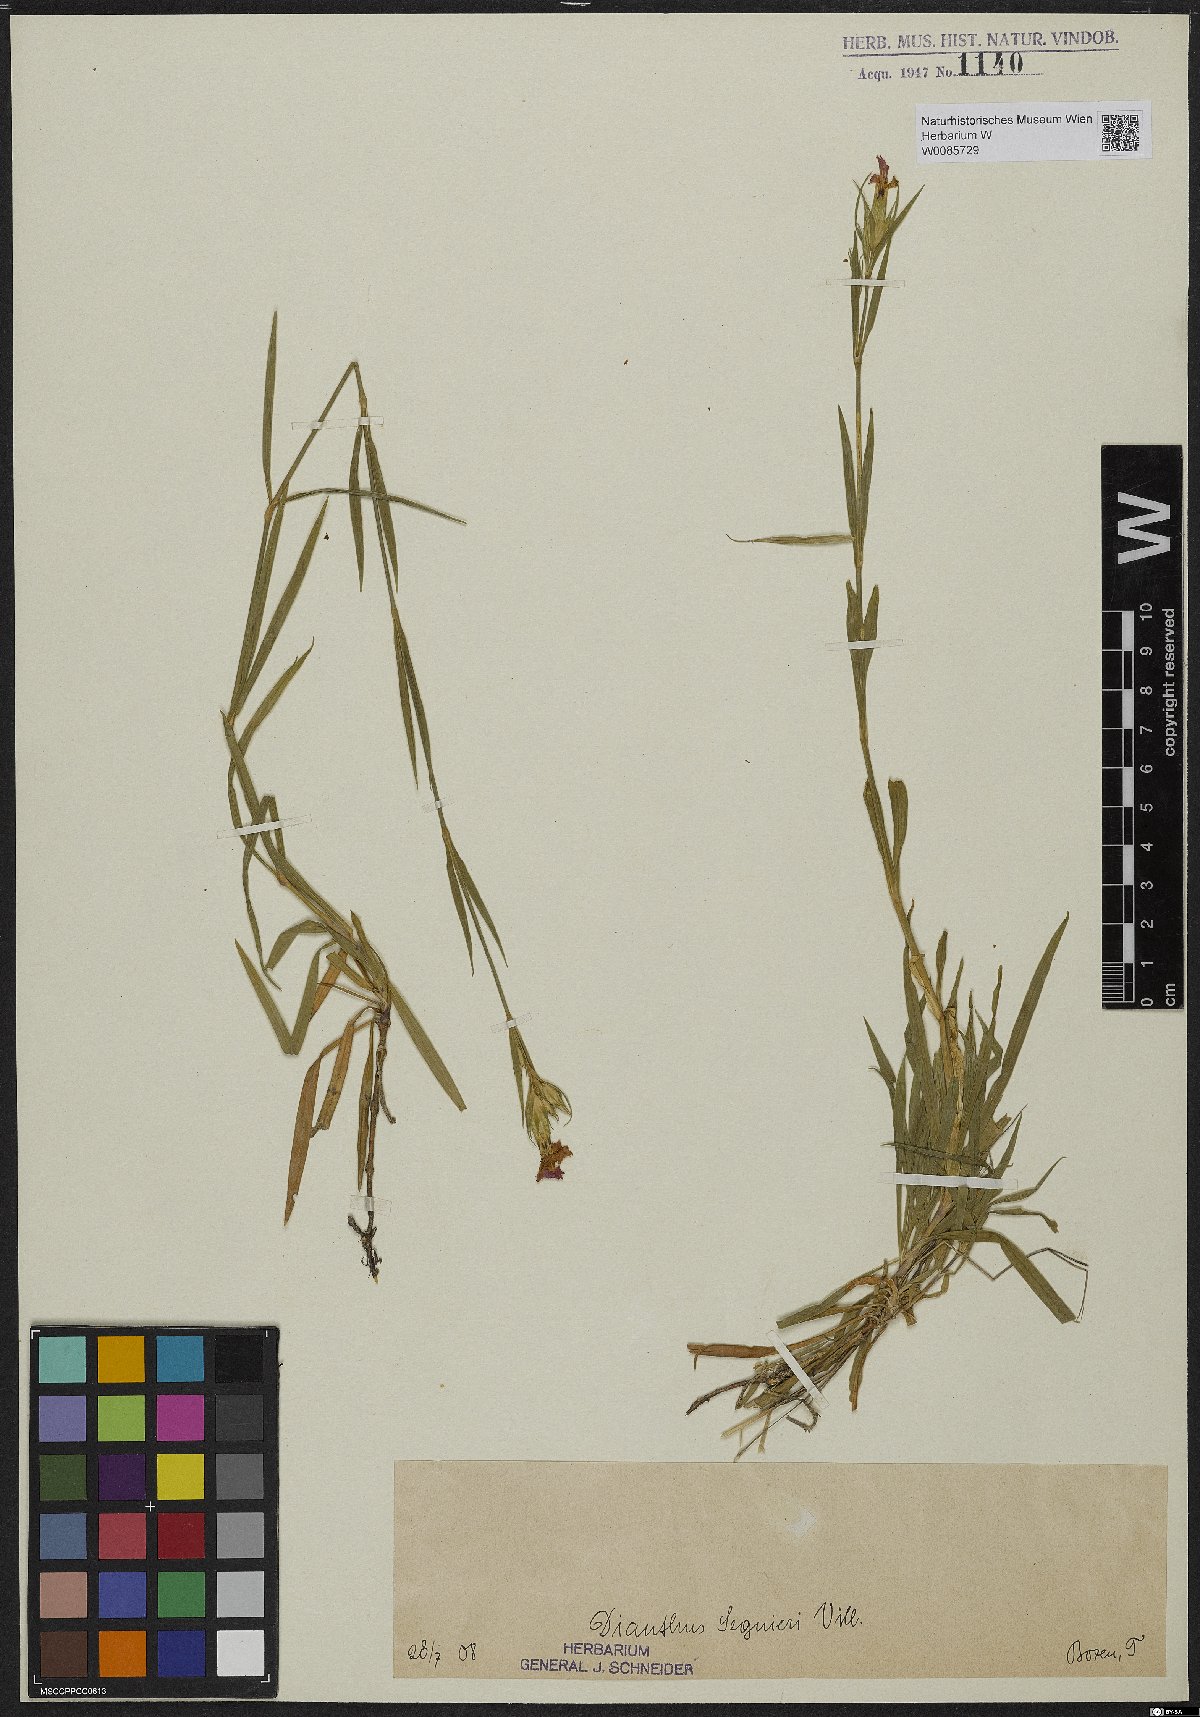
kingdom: Plantae
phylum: Tracheophyta
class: Magnoliopsida
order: Caryophyllales
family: Caryophyllaceae
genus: Dianthus
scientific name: Dianthus seguieri
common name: Ragged pink
